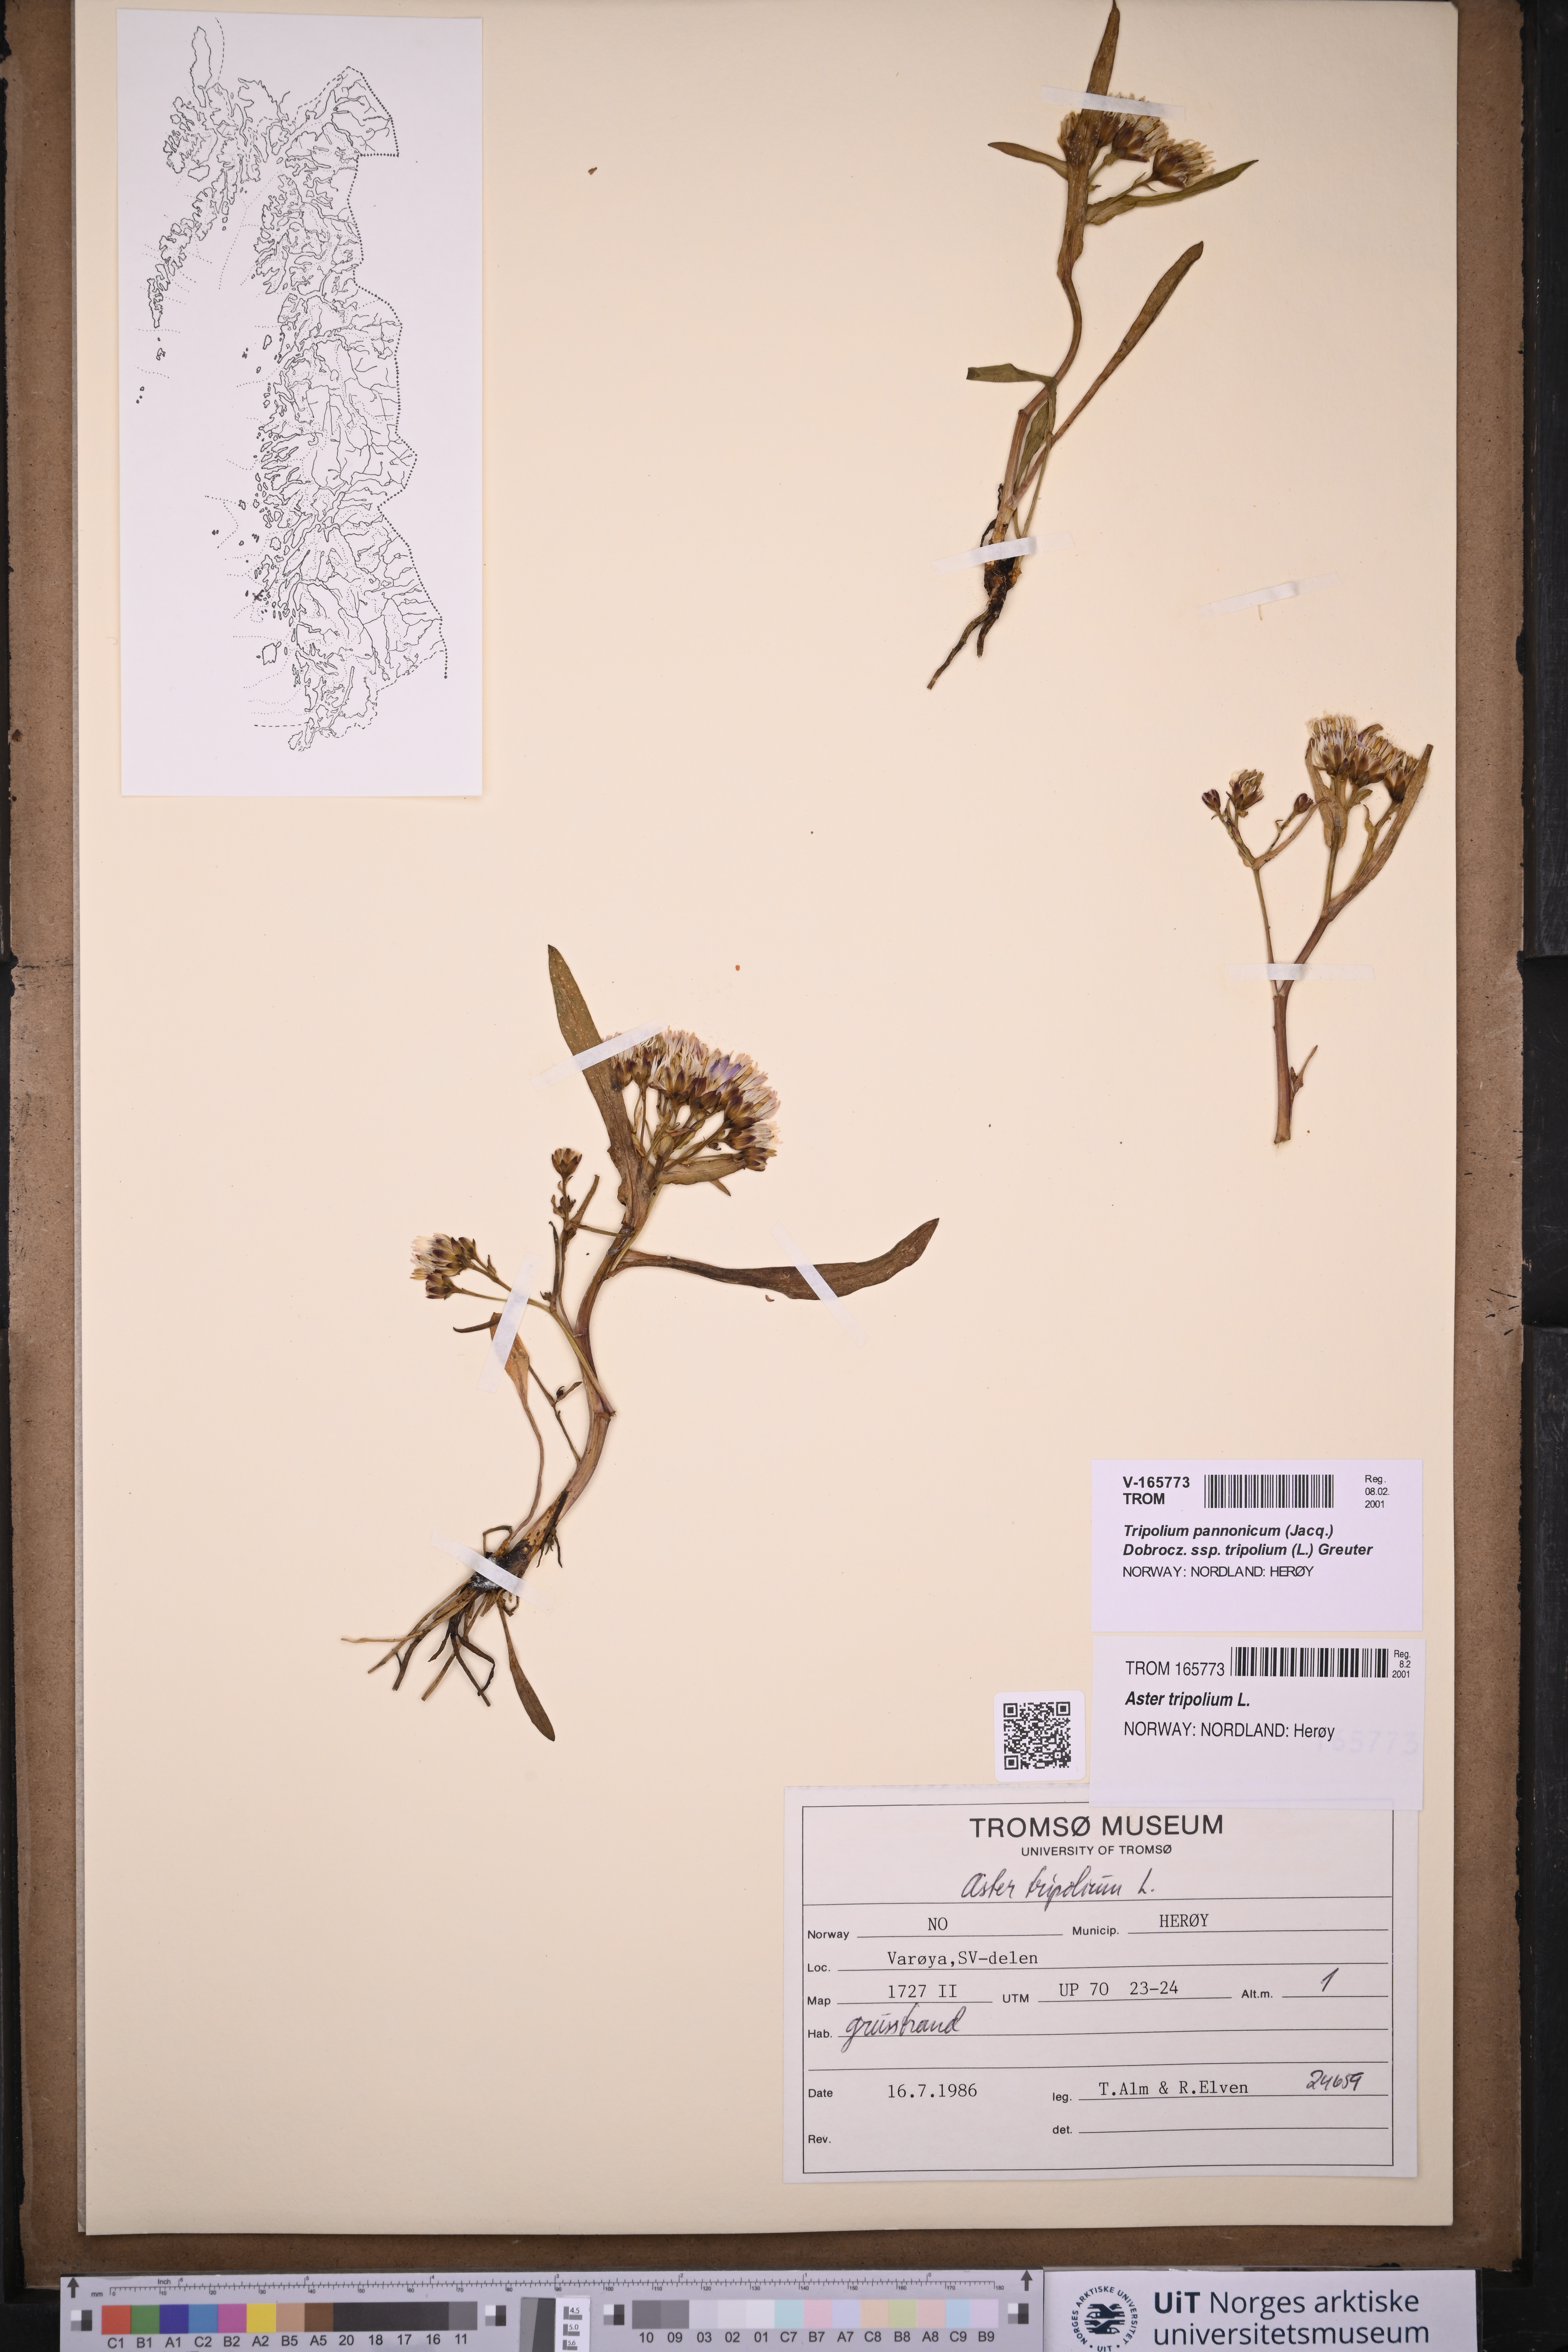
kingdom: Plantae
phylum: Tracheophyta
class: Magnoliopsida
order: Asterales
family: Asteraceae
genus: Tripolium
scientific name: Tripolium pannonicum
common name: Sea aster
